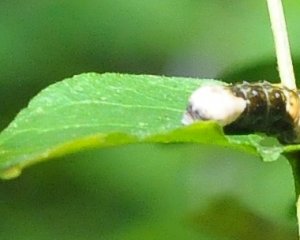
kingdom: Animalia
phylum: Arthropoda
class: Insecta
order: Lepidoptera
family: Papilionidae
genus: Papilio
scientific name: Papilio cresphontes
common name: Eastern Giant Swallowtail
